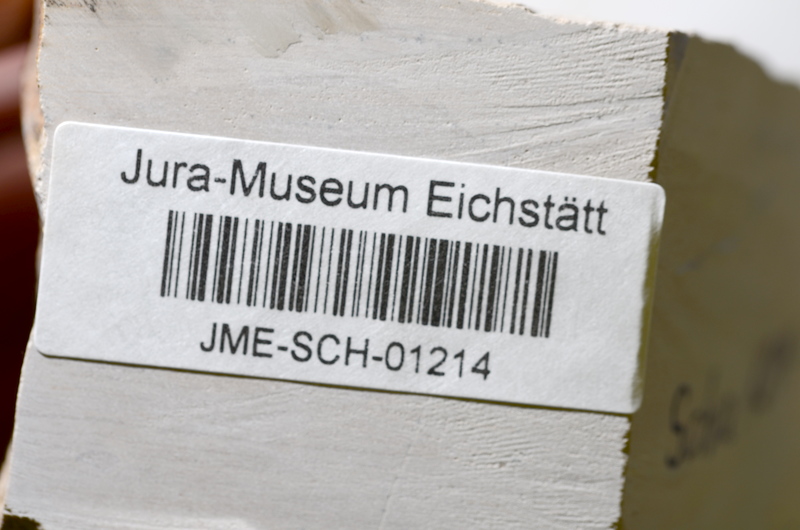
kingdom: Animalia
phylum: Chordata
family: Ascalaboidae
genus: Tharsis
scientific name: Tharsis dubius
